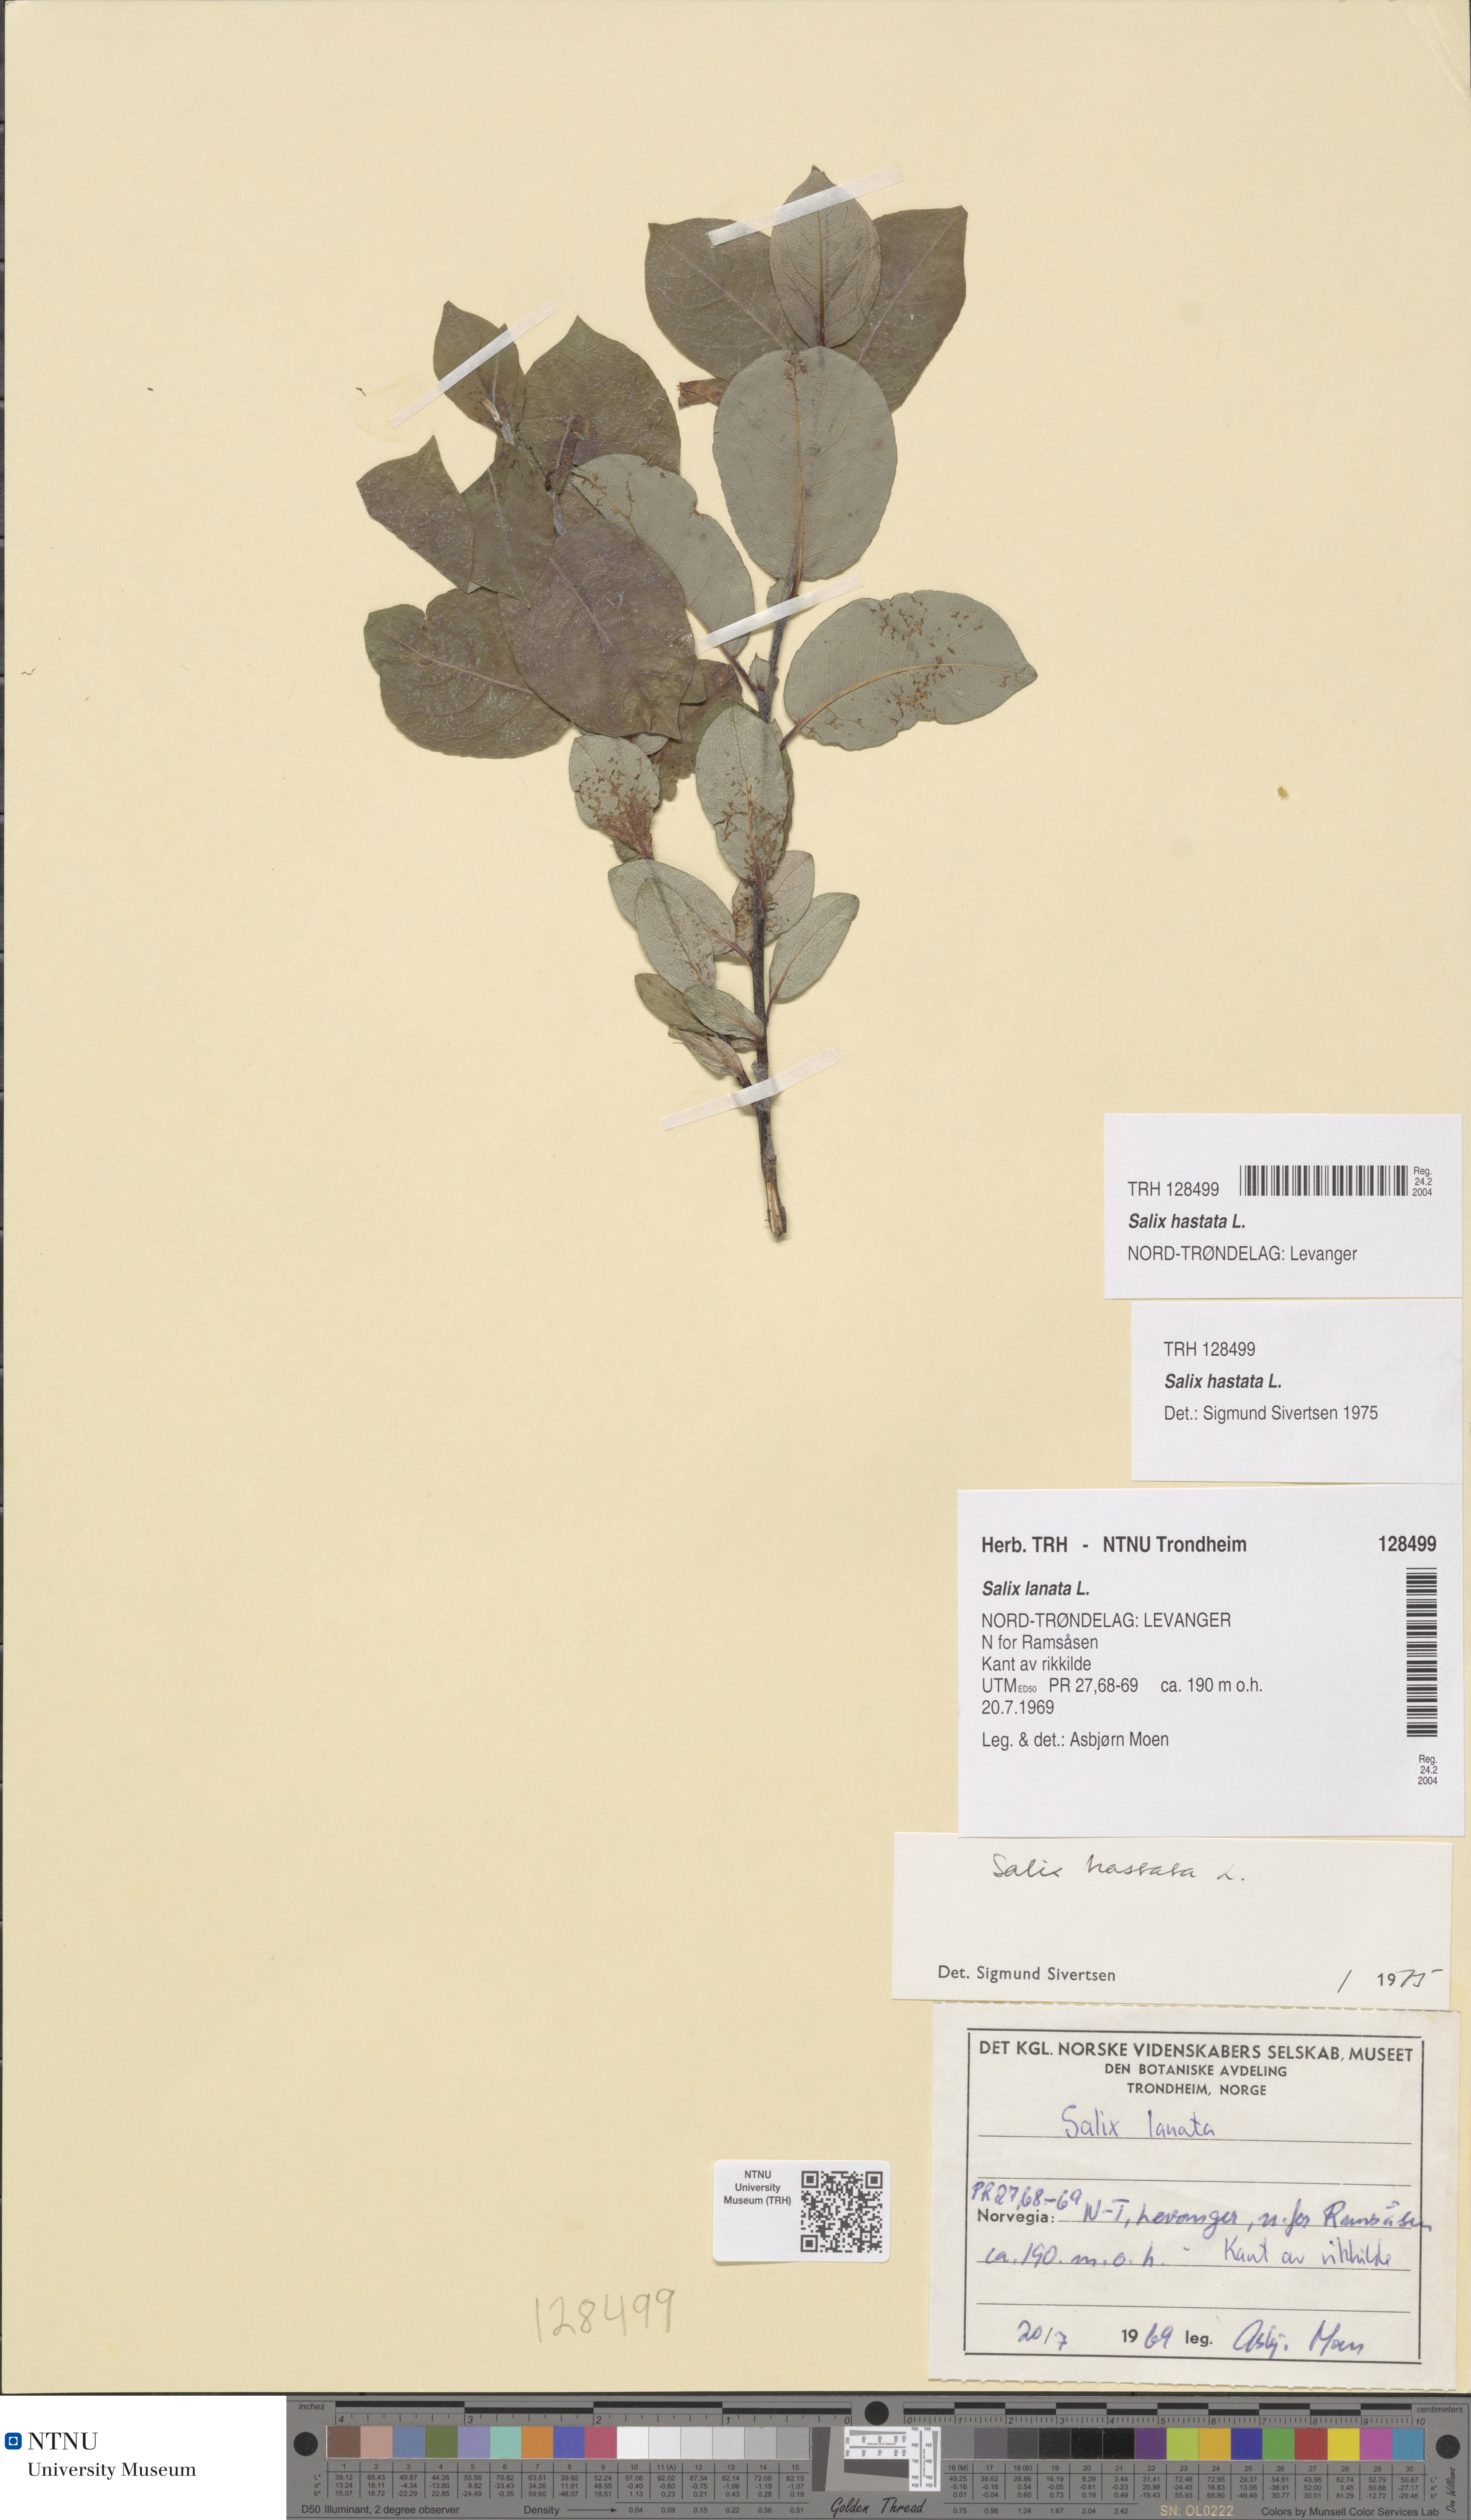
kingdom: Plantae
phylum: Tracheophyta
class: Magnoliopsida
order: Malpighiales
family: Salicaceae
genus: Salix
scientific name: Salix hastata
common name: Halberd willow
